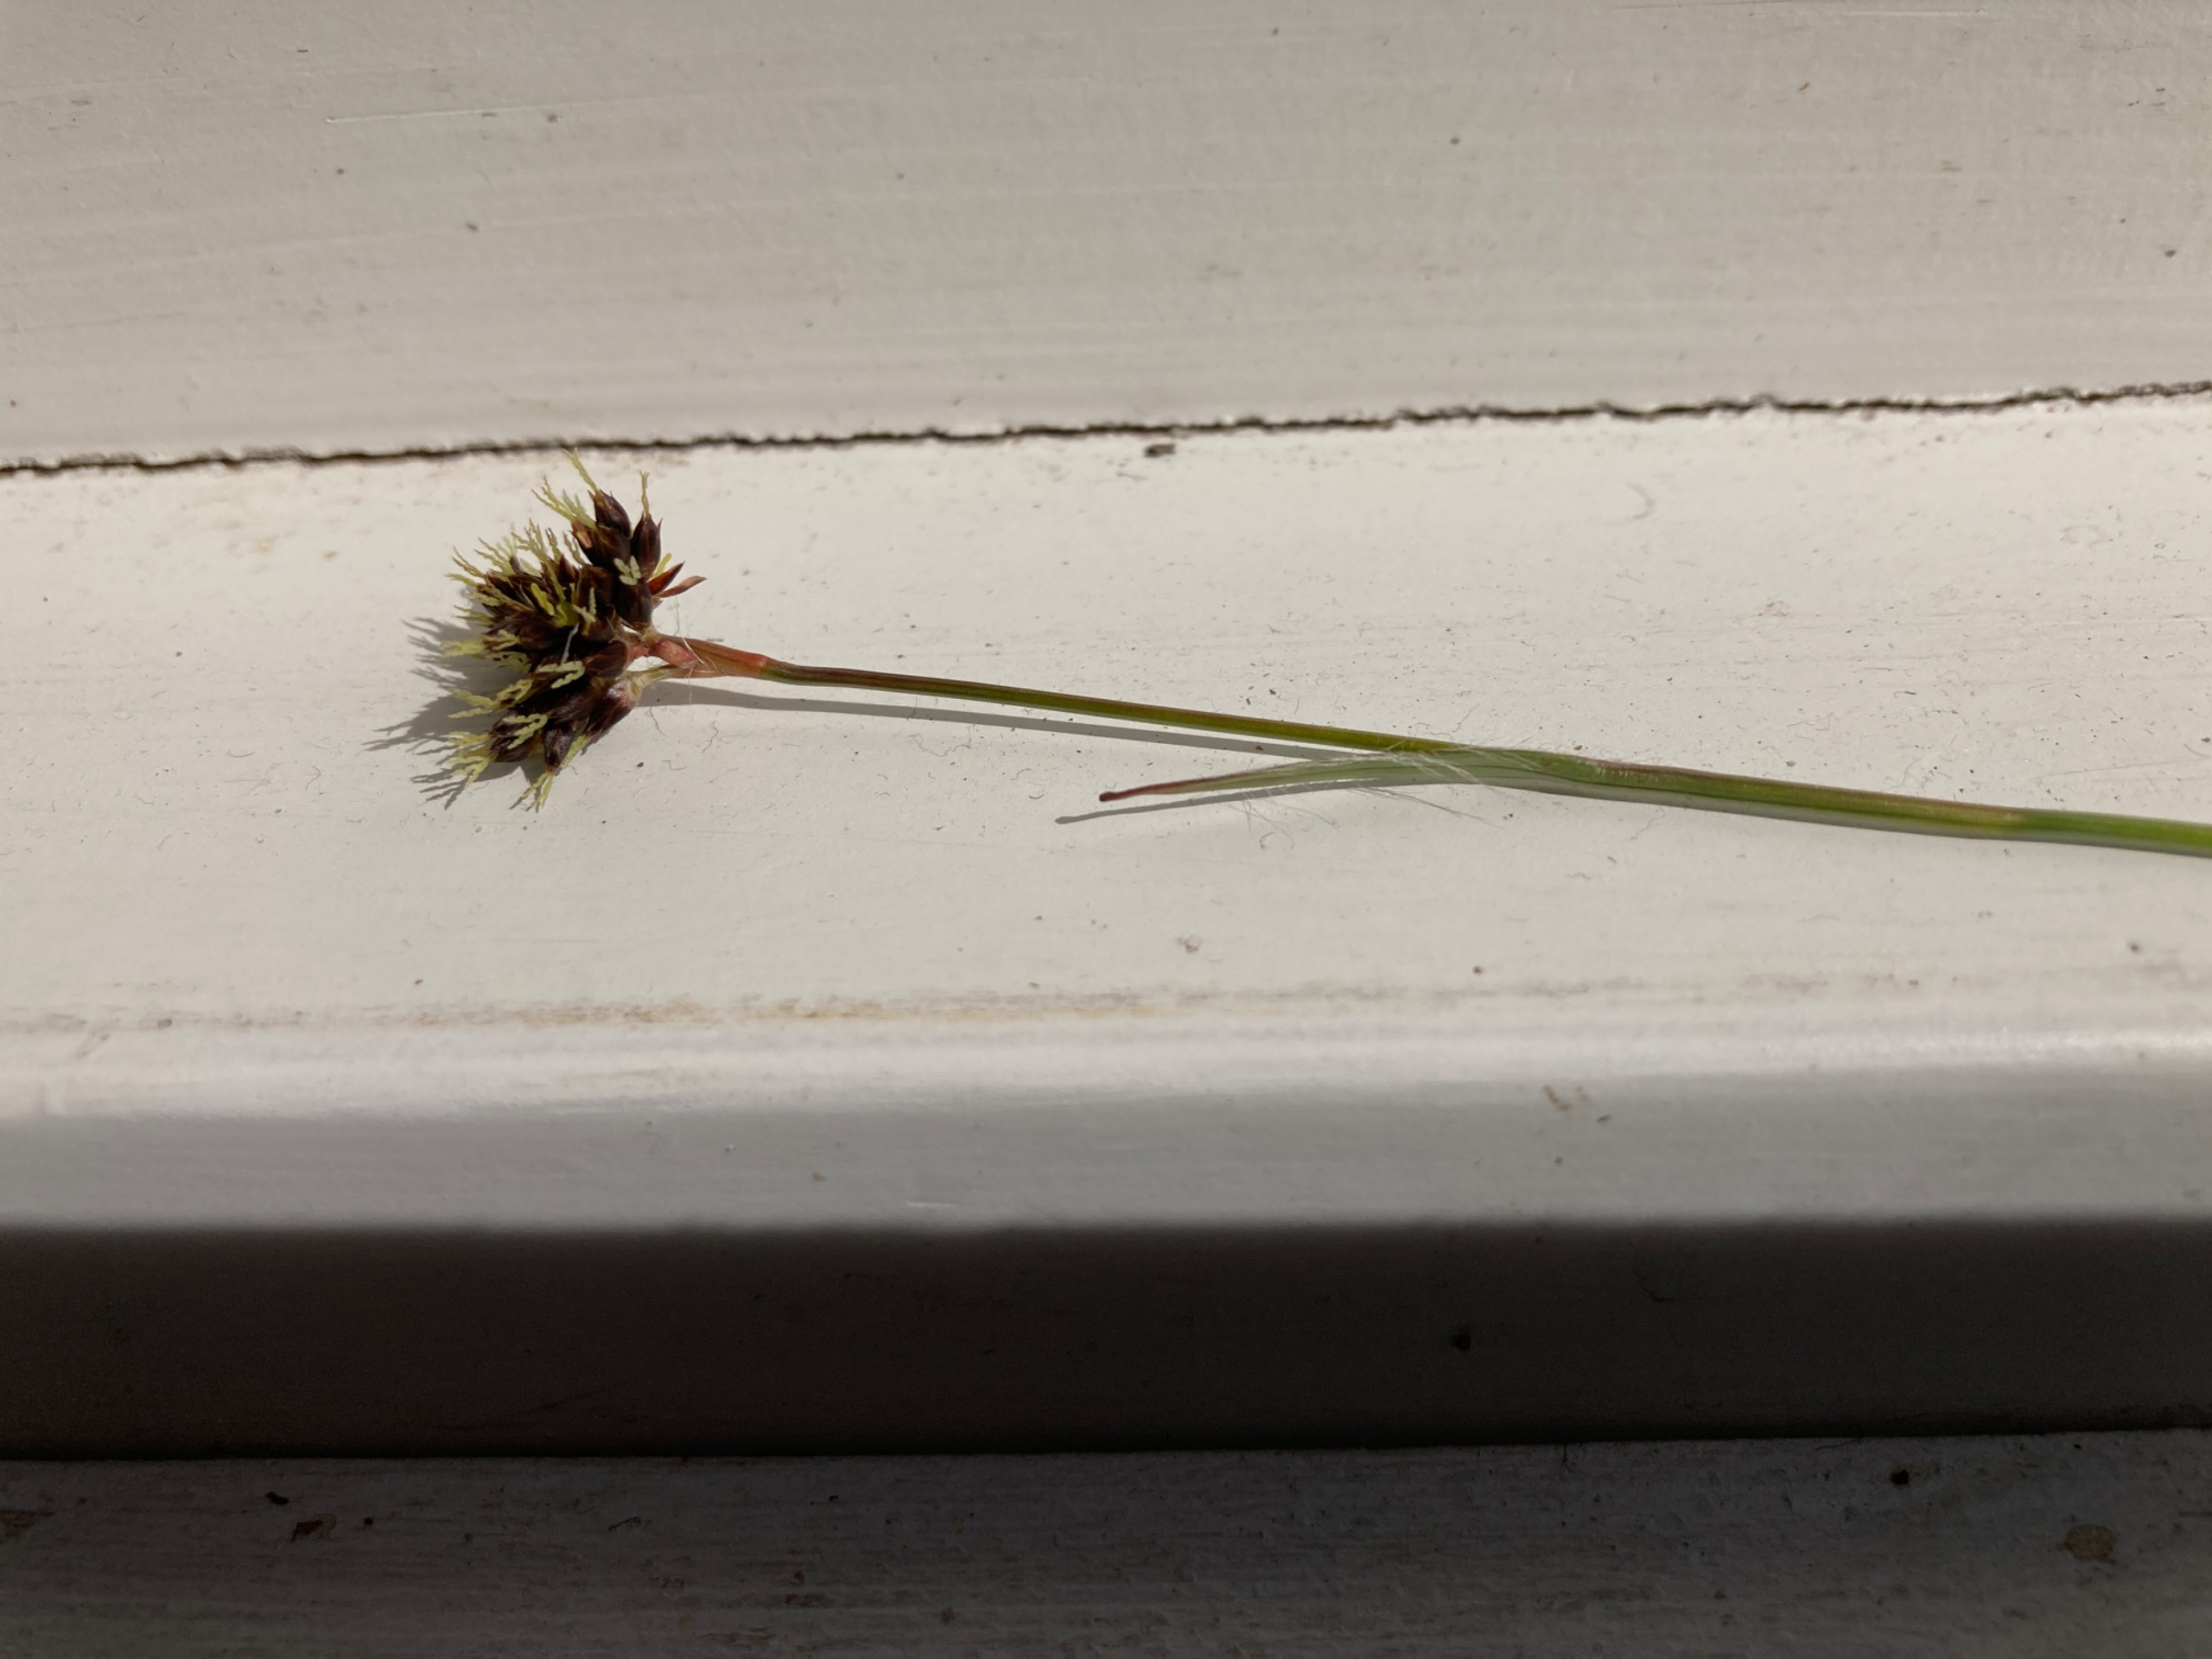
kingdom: Plantae
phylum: Tracheophyta
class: Liliopsida
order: Poales
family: Juncaceae
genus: Luzula
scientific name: Luzula campestris
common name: Mark-frytle
